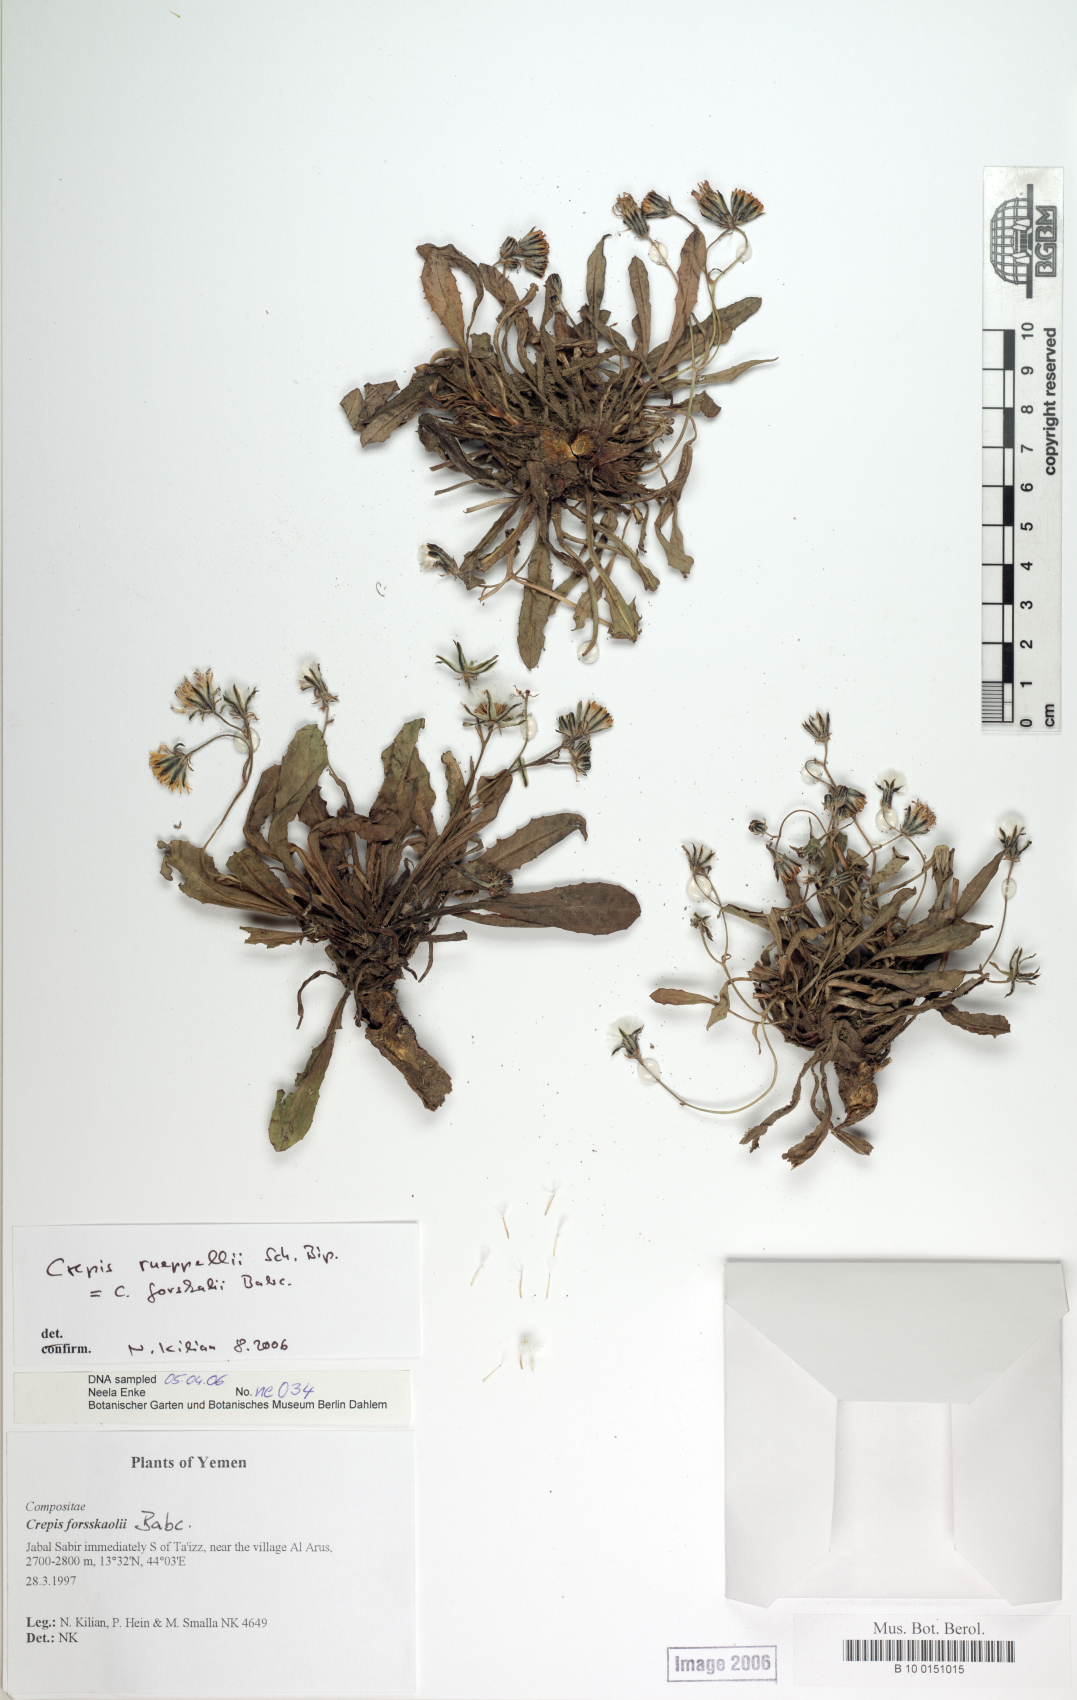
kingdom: Plantae
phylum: Tracheophyta
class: Magnoliopsida
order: Asterales
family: Asteraceae
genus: Crepis
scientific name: Crepis rueppellii
